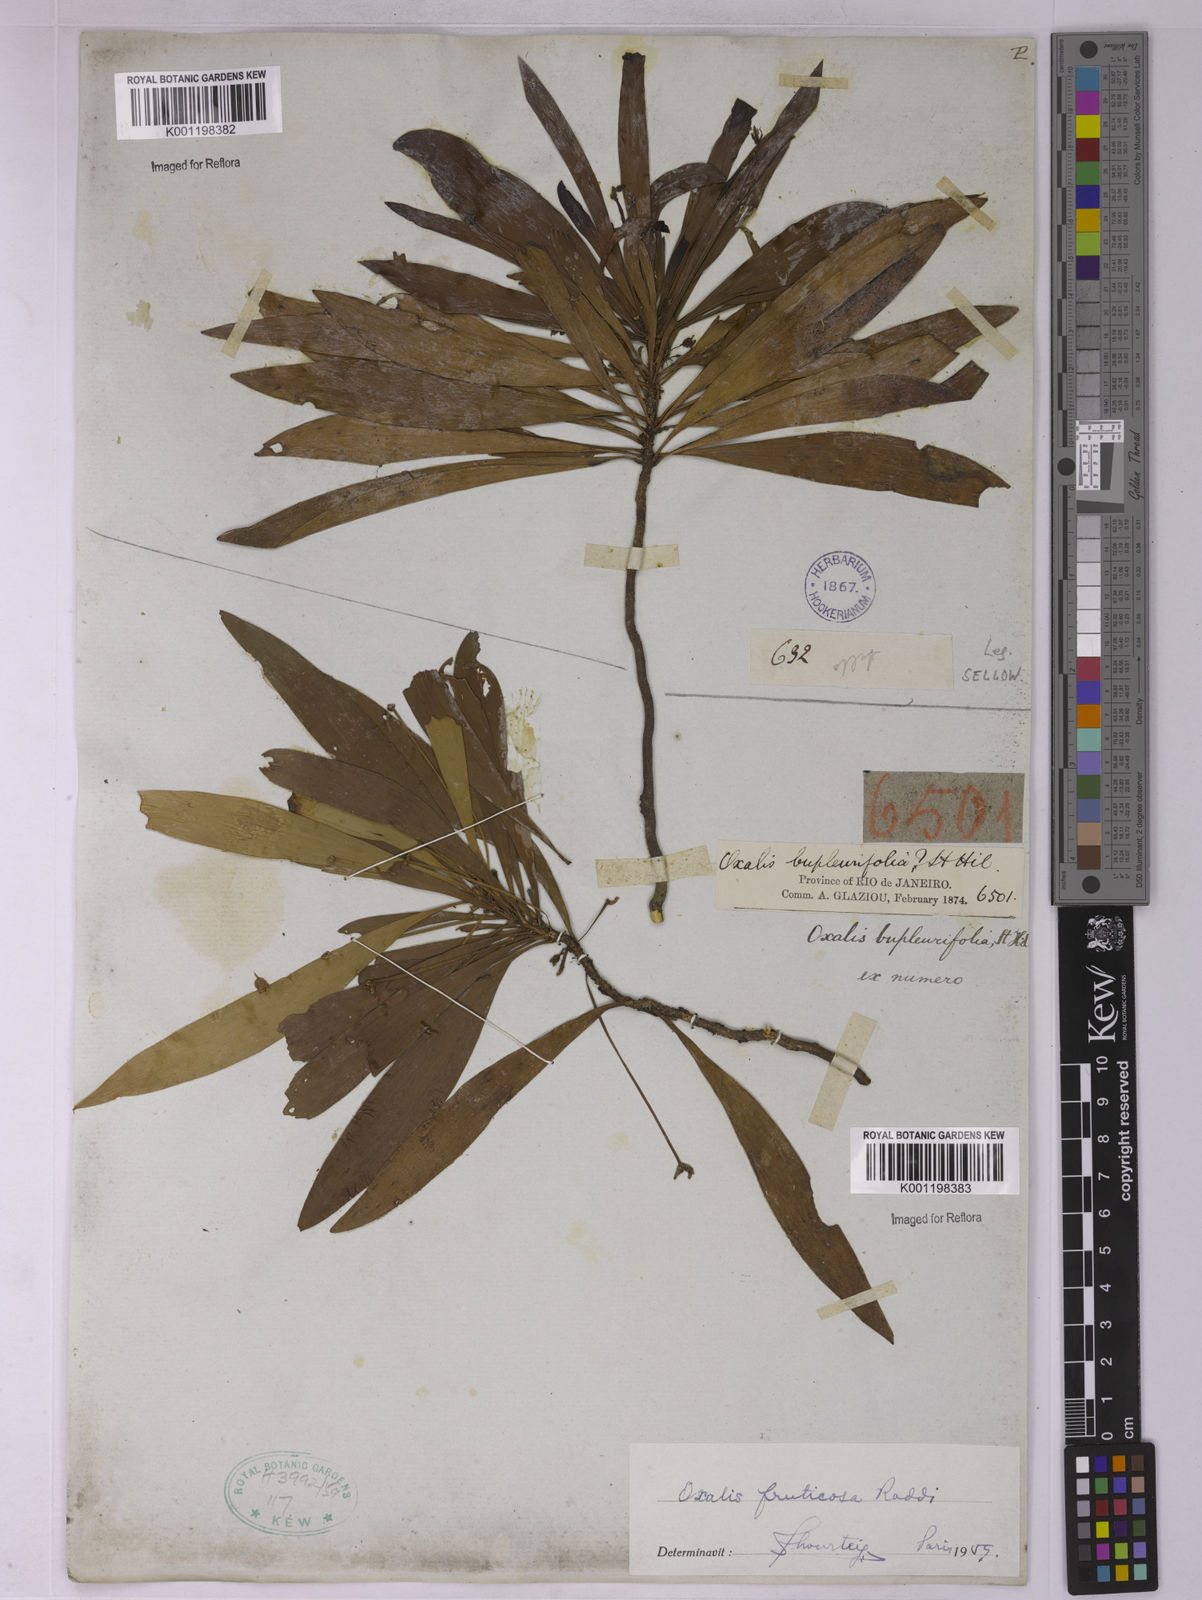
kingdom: Plantae
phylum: Tracheophyta
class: Magnoliopsida
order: Oxalidales
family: Oxalidaceae
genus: Oxalis
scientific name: Oxalis fruticosa
